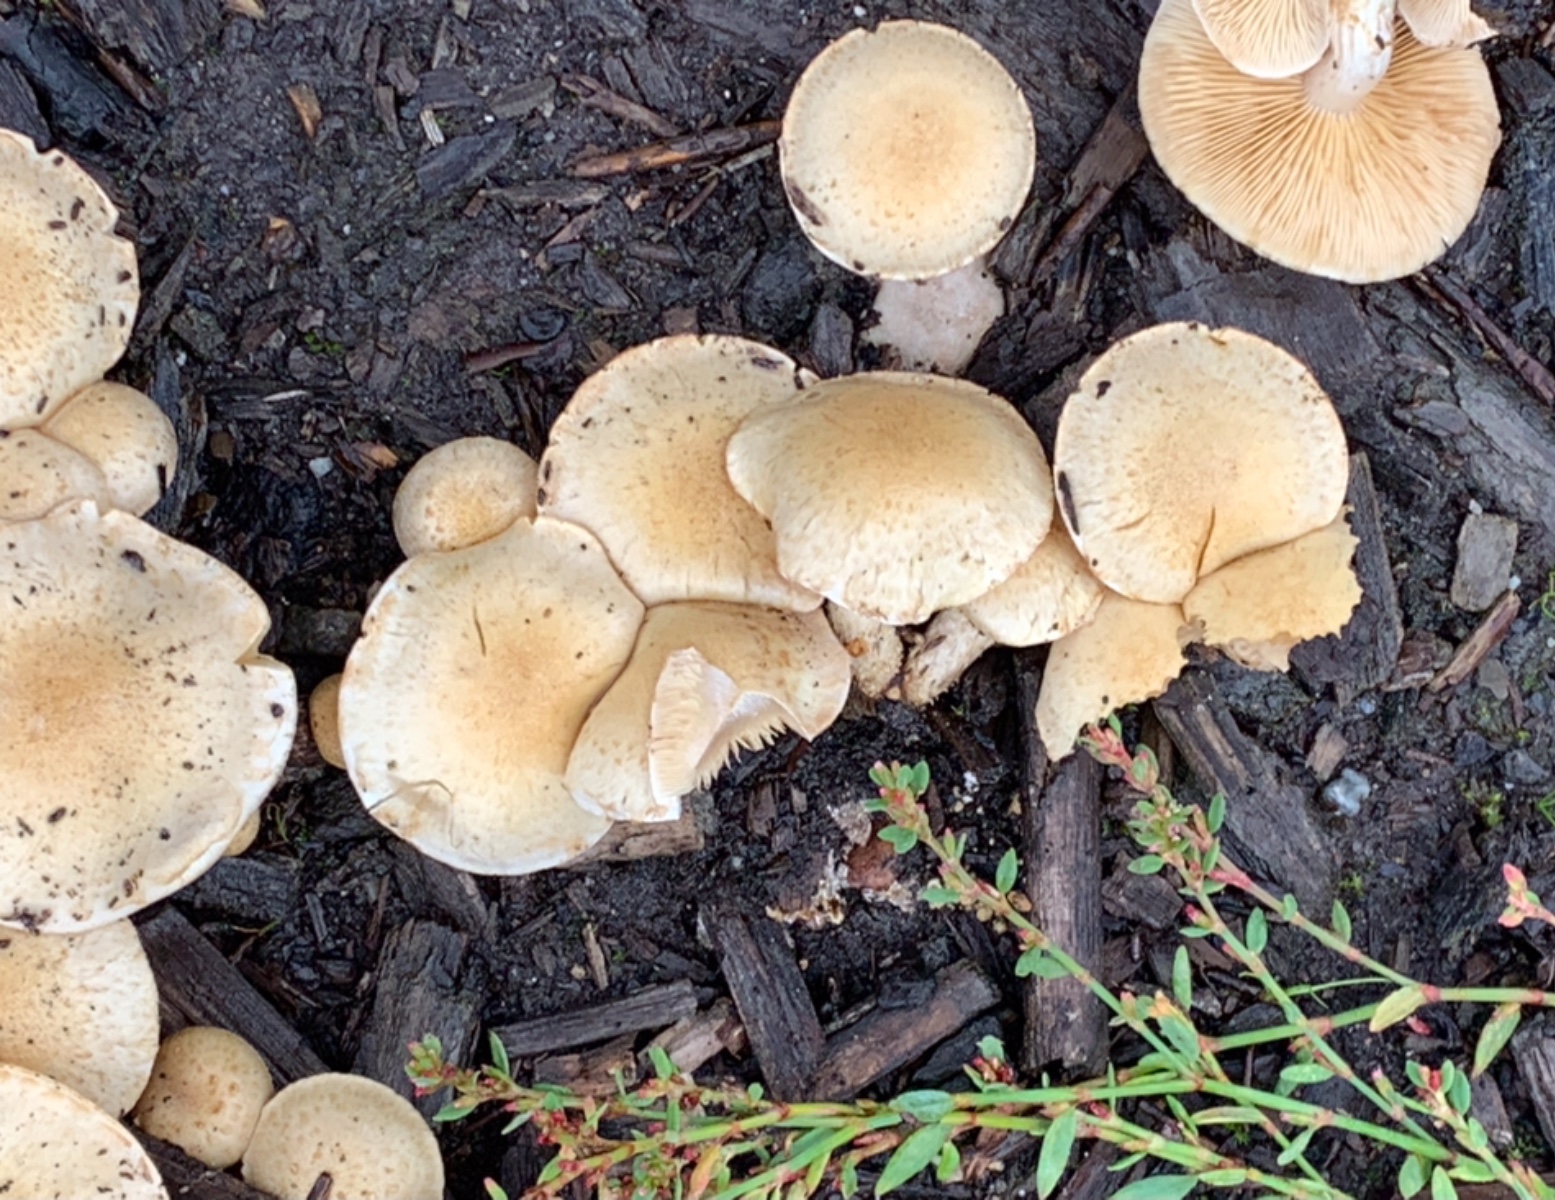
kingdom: Fungi
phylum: Basidiomycota
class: Agaricomycetes
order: Agaricales
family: Strophariaceae
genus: Pholiota
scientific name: Pholiota gummosa
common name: grøngul skælhat
